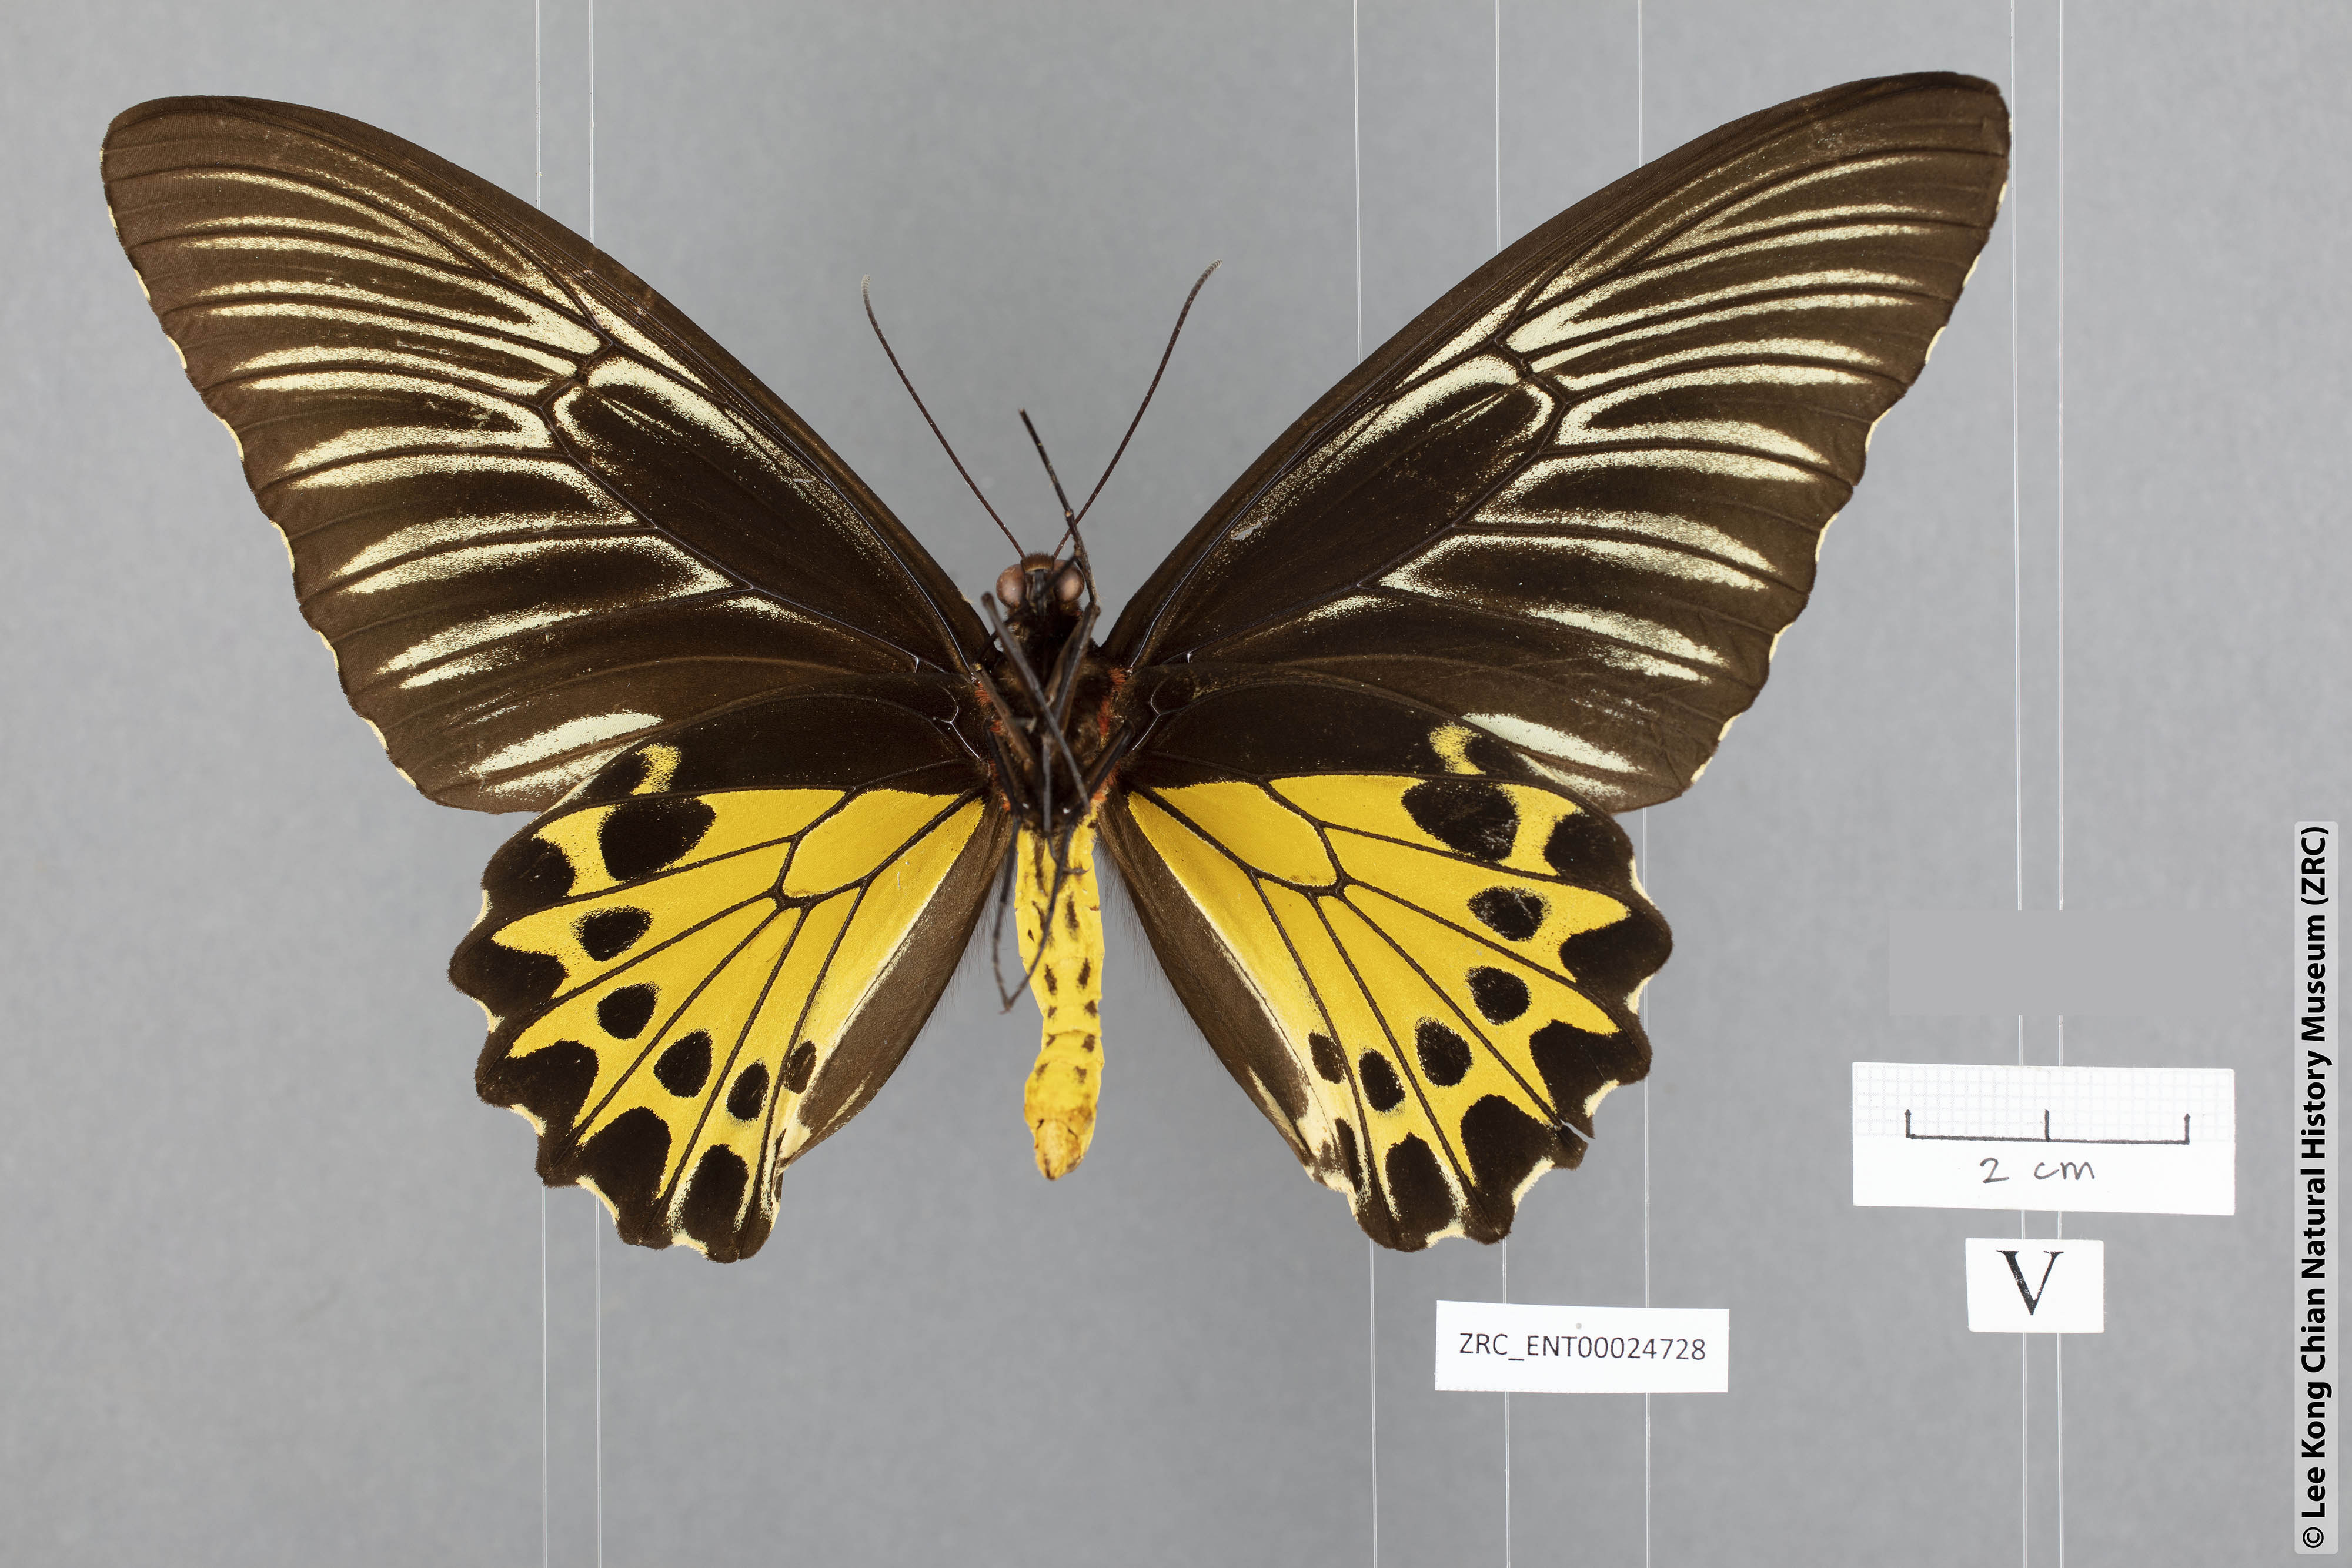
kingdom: Animalia
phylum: Arthropoda
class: Insecta
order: Lepidoptera
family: Papilionidae
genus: Troides
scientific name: Troides helena
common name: Common birdwing
